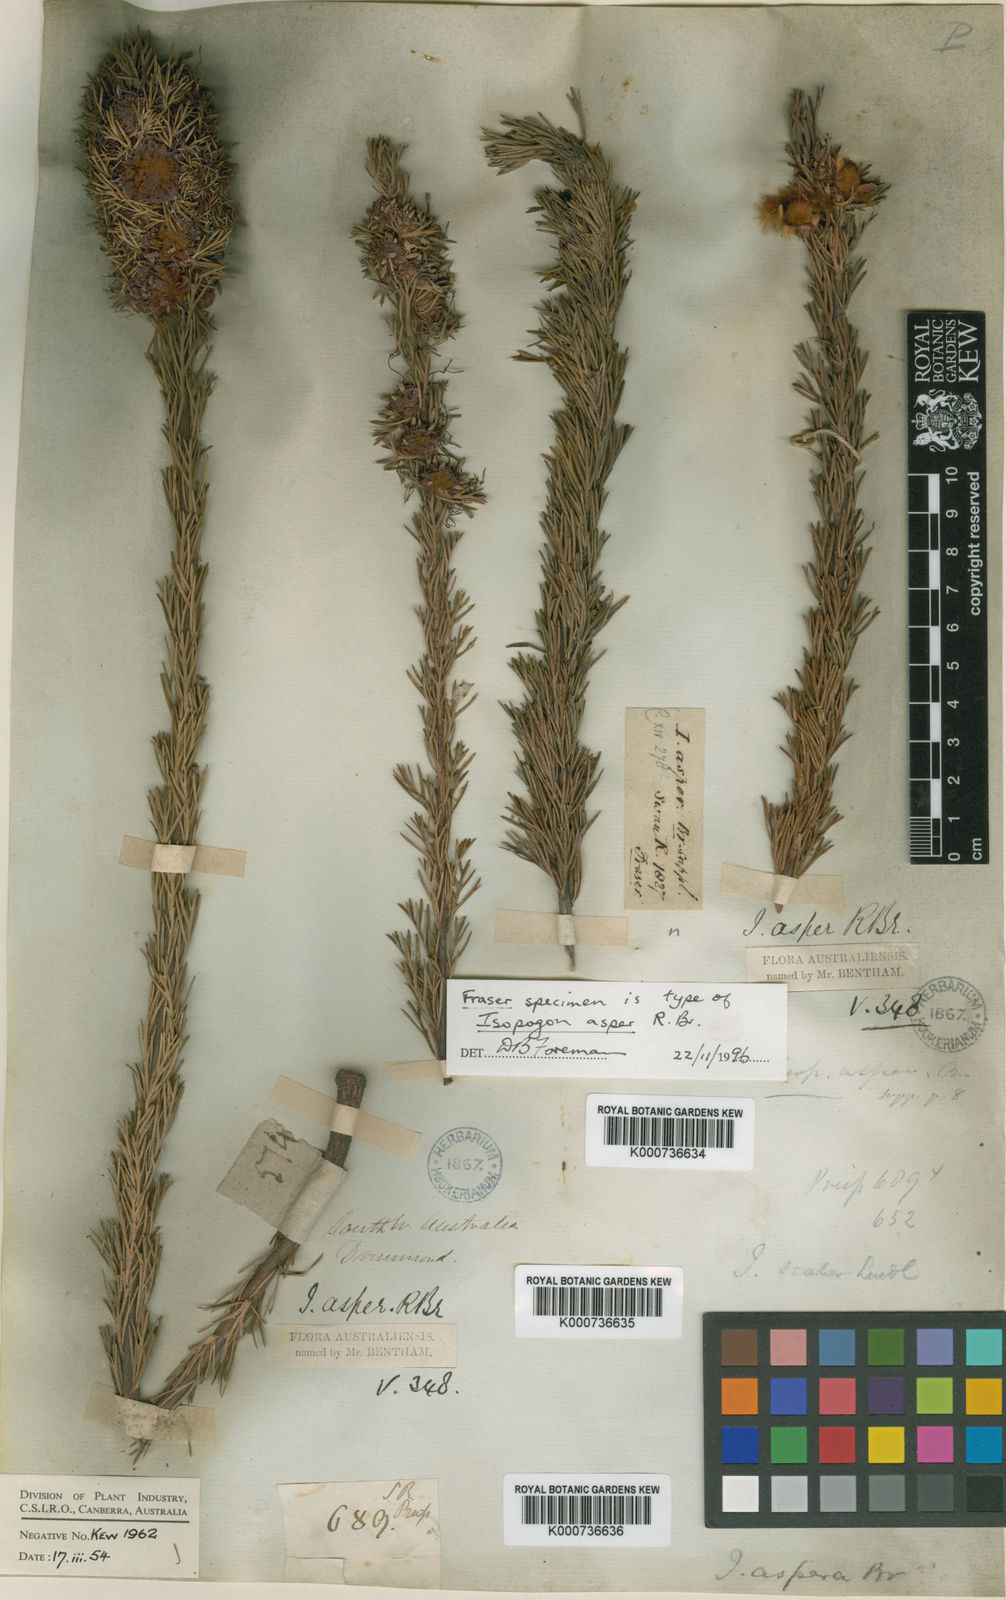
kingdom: Plantae
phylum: Tracheophyta
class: Magnoliopsida
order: Proteales
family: Proteaceae
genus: Isopogon
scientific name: Isopogon asper
